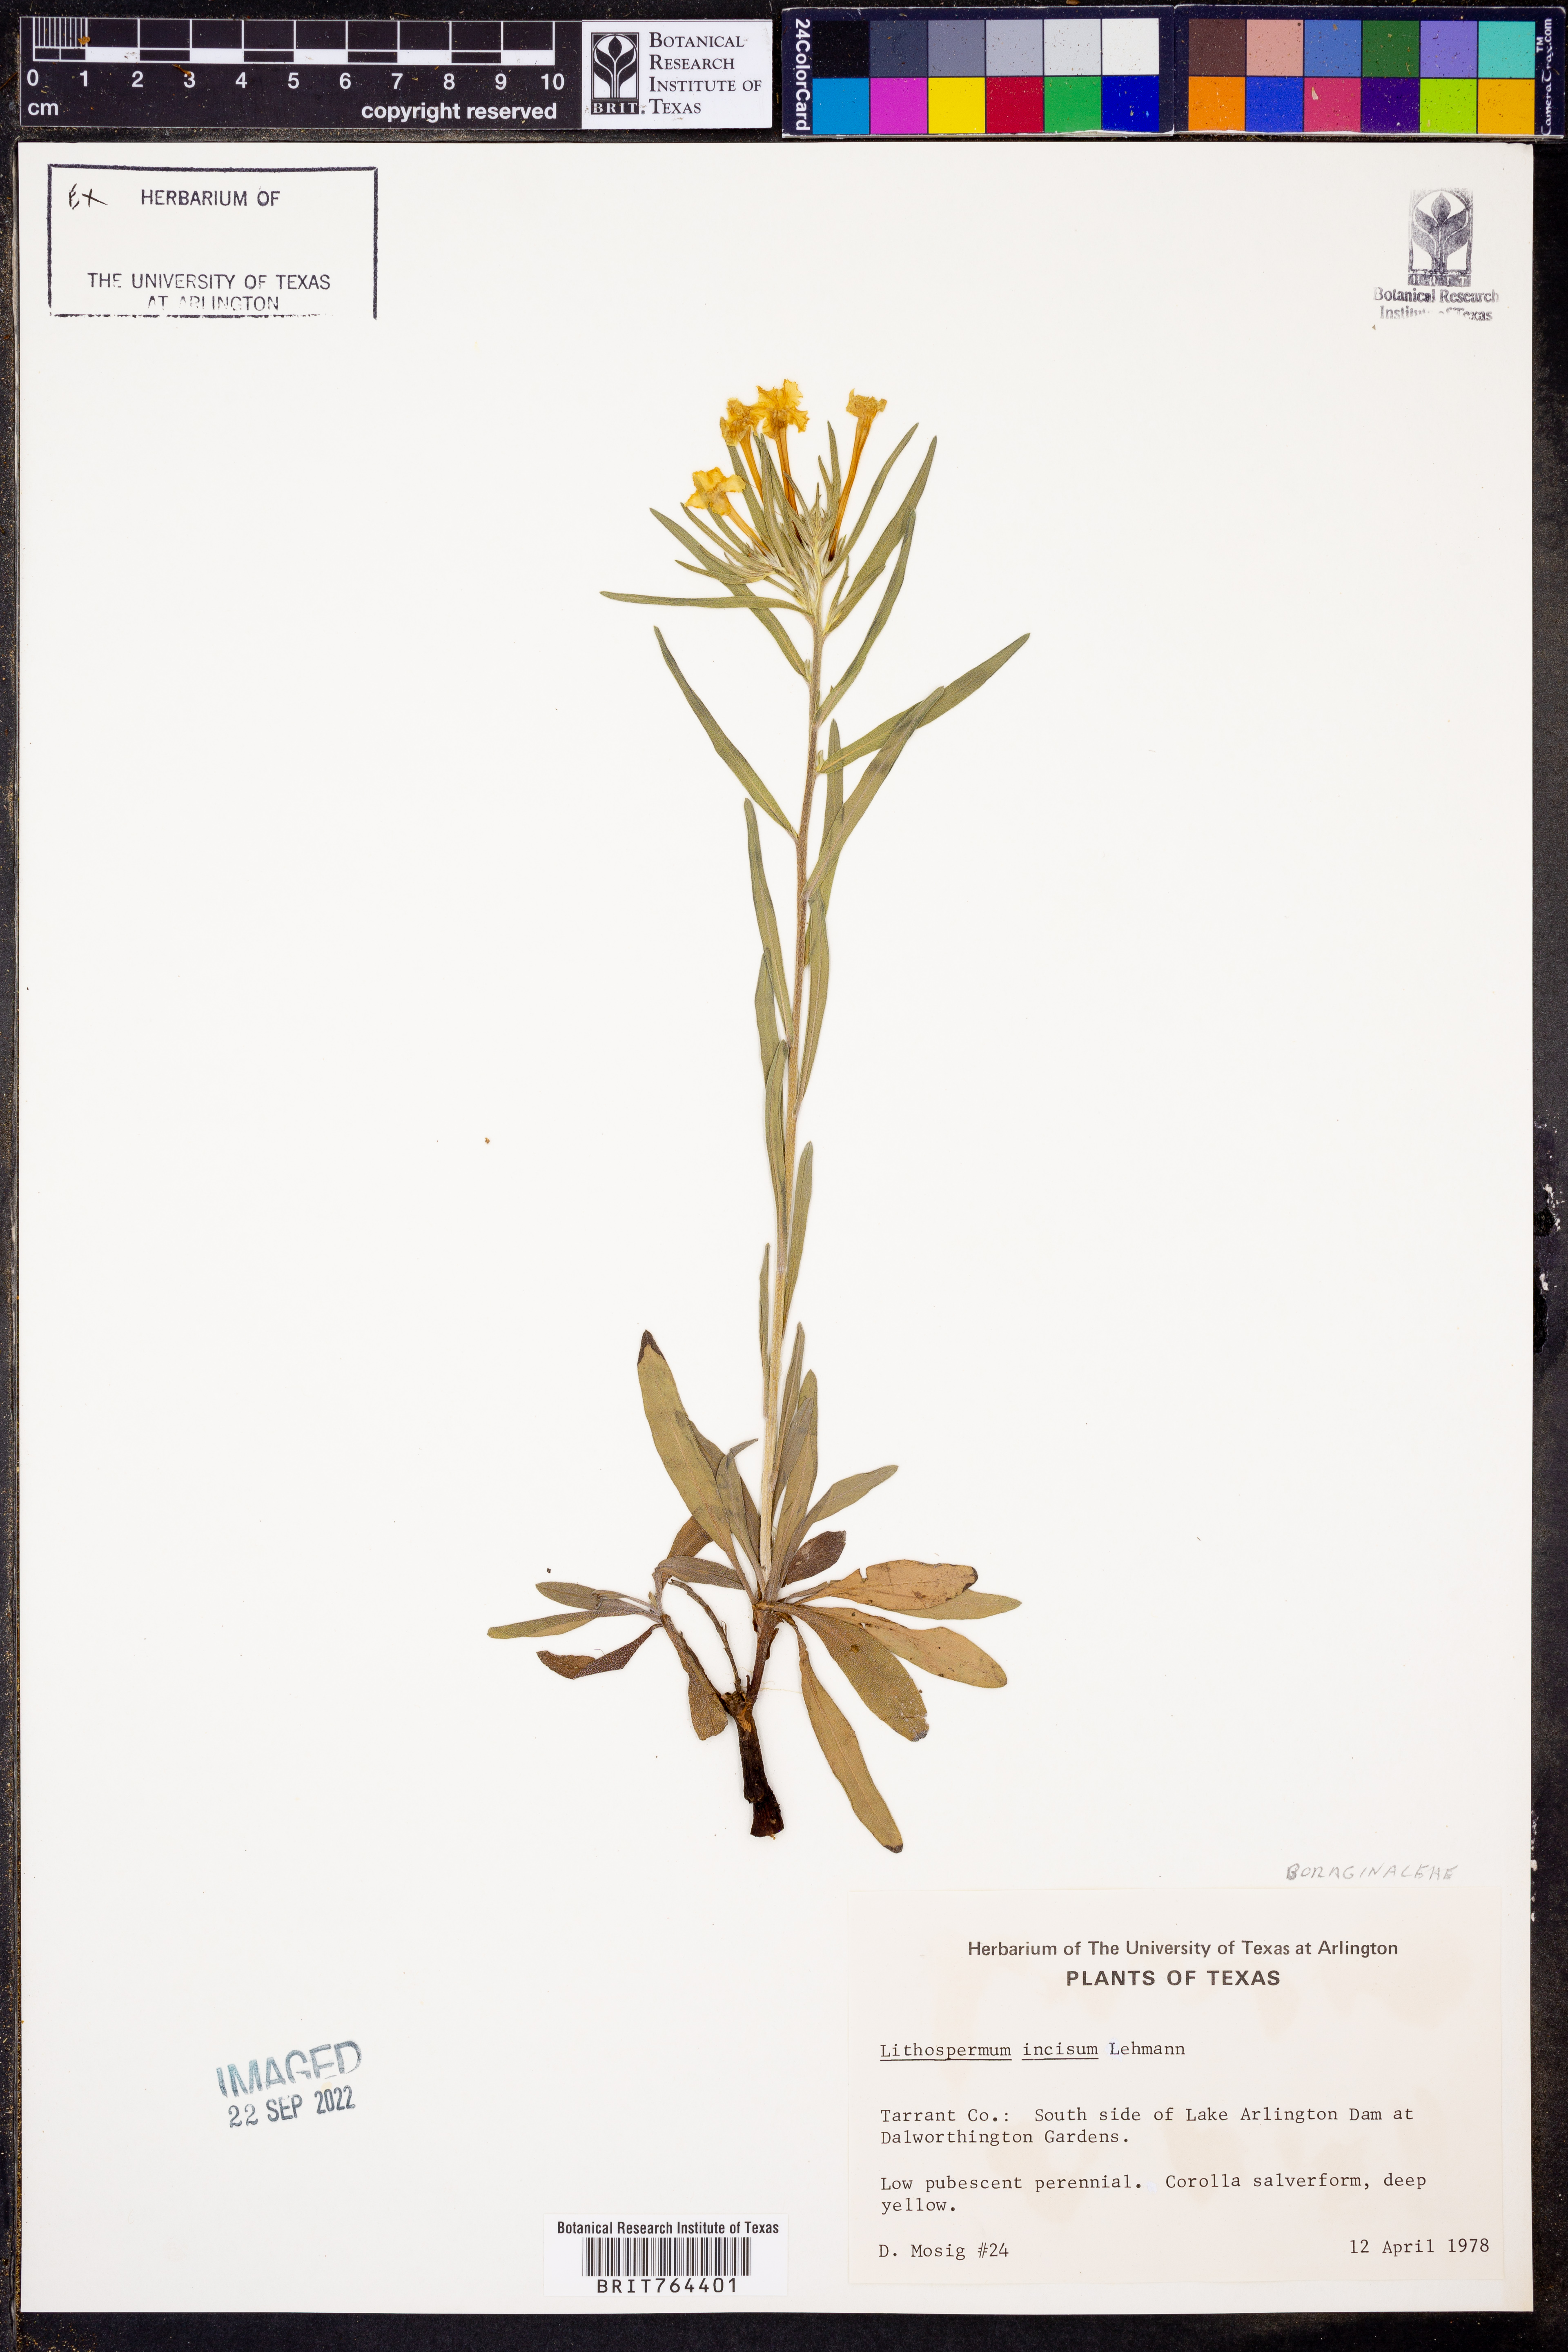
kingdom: Plantae
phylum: Tracheophyta
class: Magnoliopsida
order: Boraginales
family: Boraginaceae
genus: Lithospermum
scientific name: Lithospermum incisum
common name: Fringed gromwell
